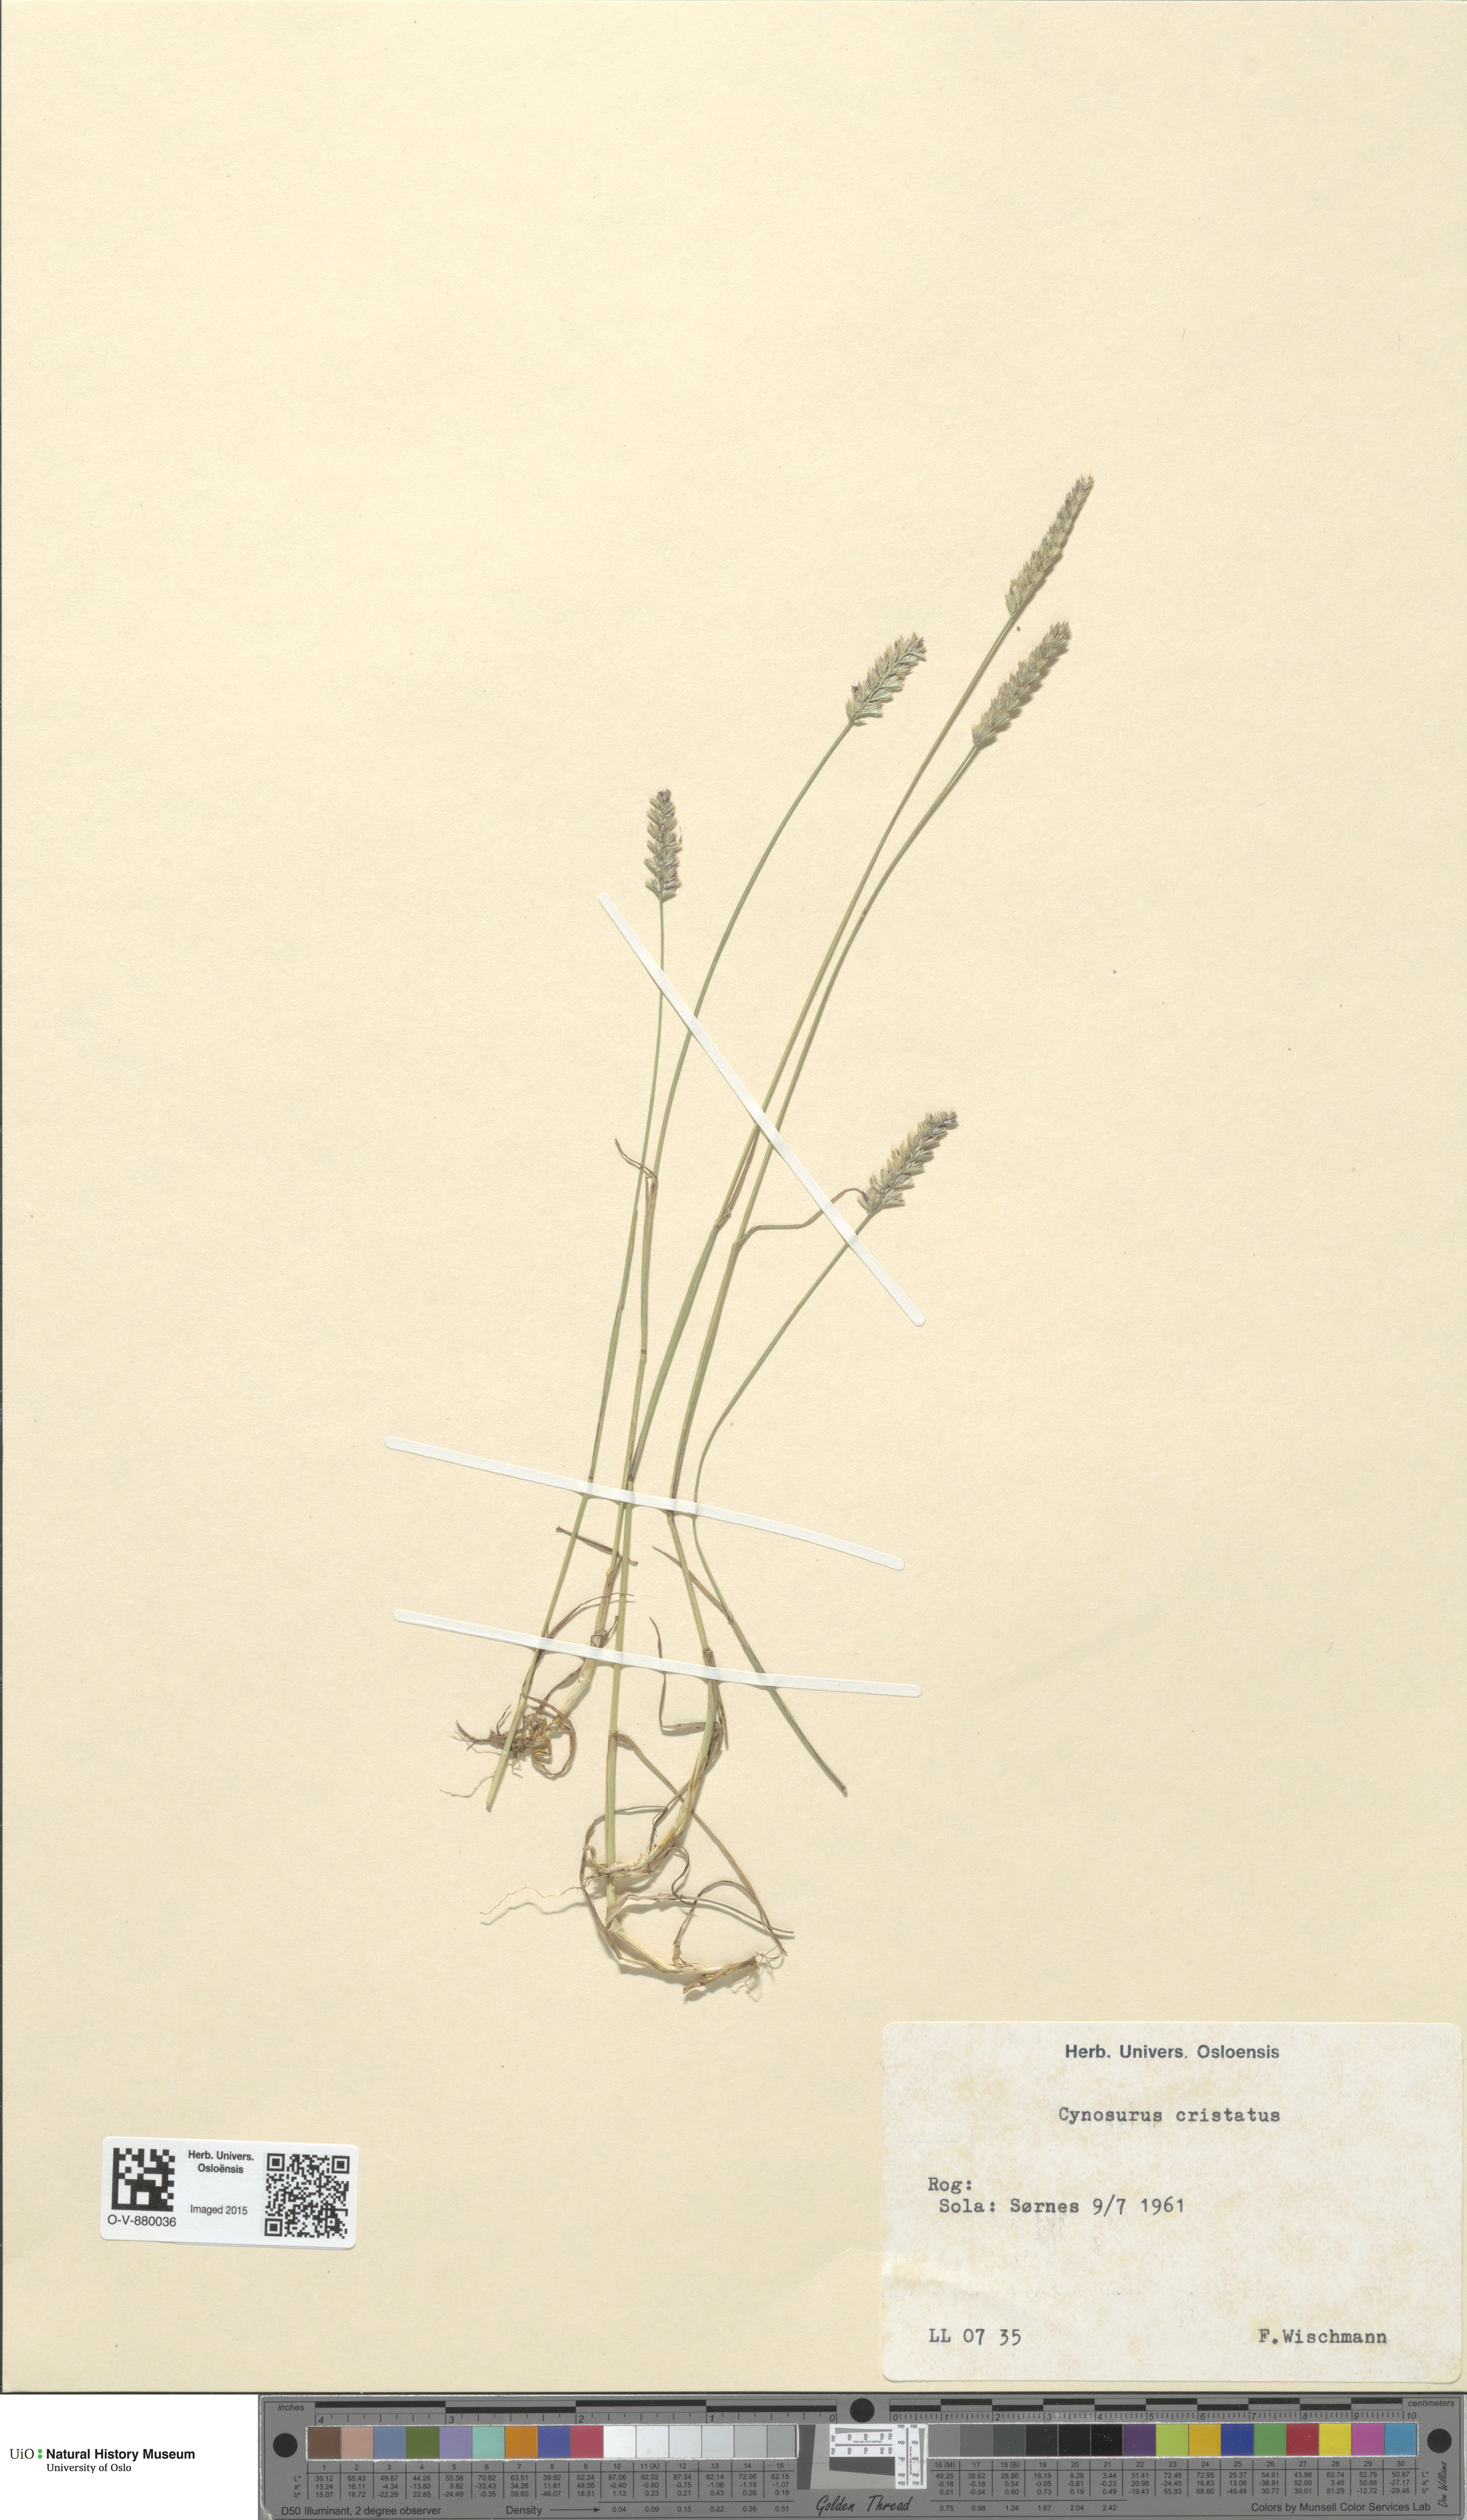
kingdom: Plantae
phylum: Tracheophyta
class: Liliopsida
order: Poales
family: Poaceae
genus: Cynosurus
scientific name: Cynosurus cristatus
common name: Crested dog's-tail
